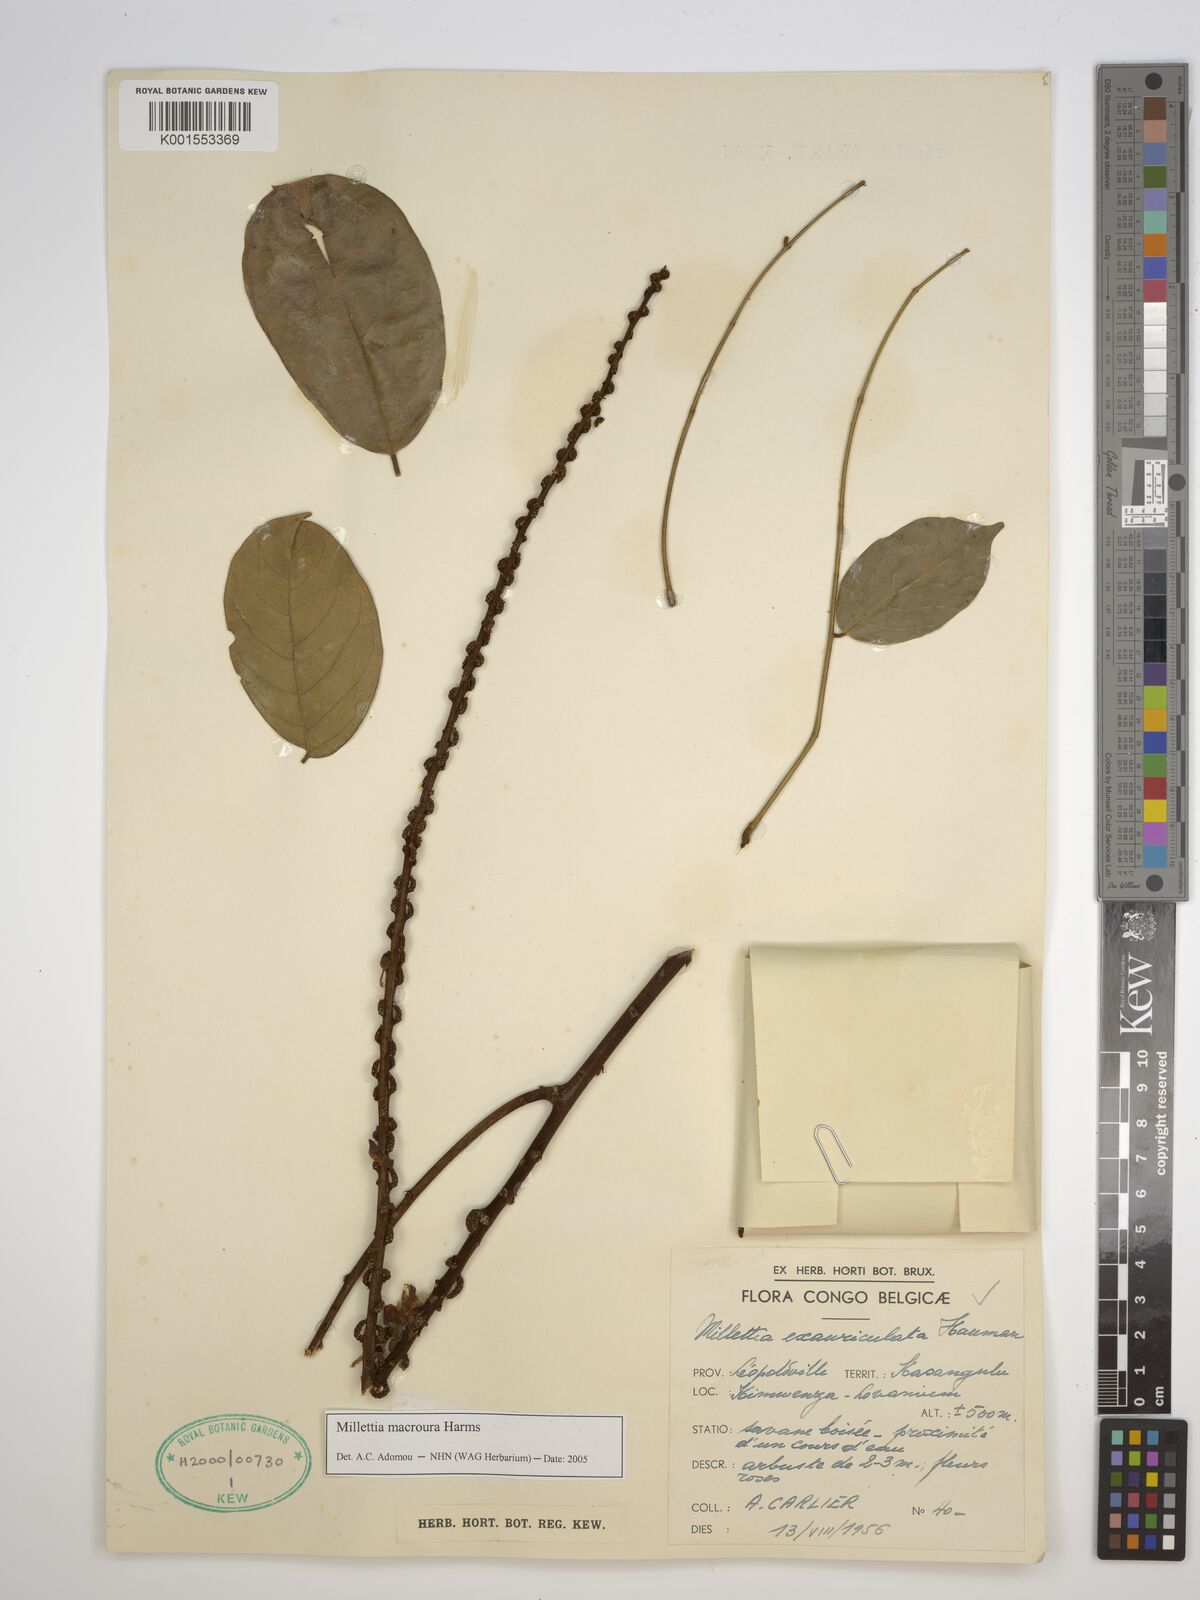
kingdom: Plantae
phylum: Tracheophyta
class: Magnoliopsida
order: Fabales
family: Fabaceae
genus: Millettia
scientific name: Millettia macroura
